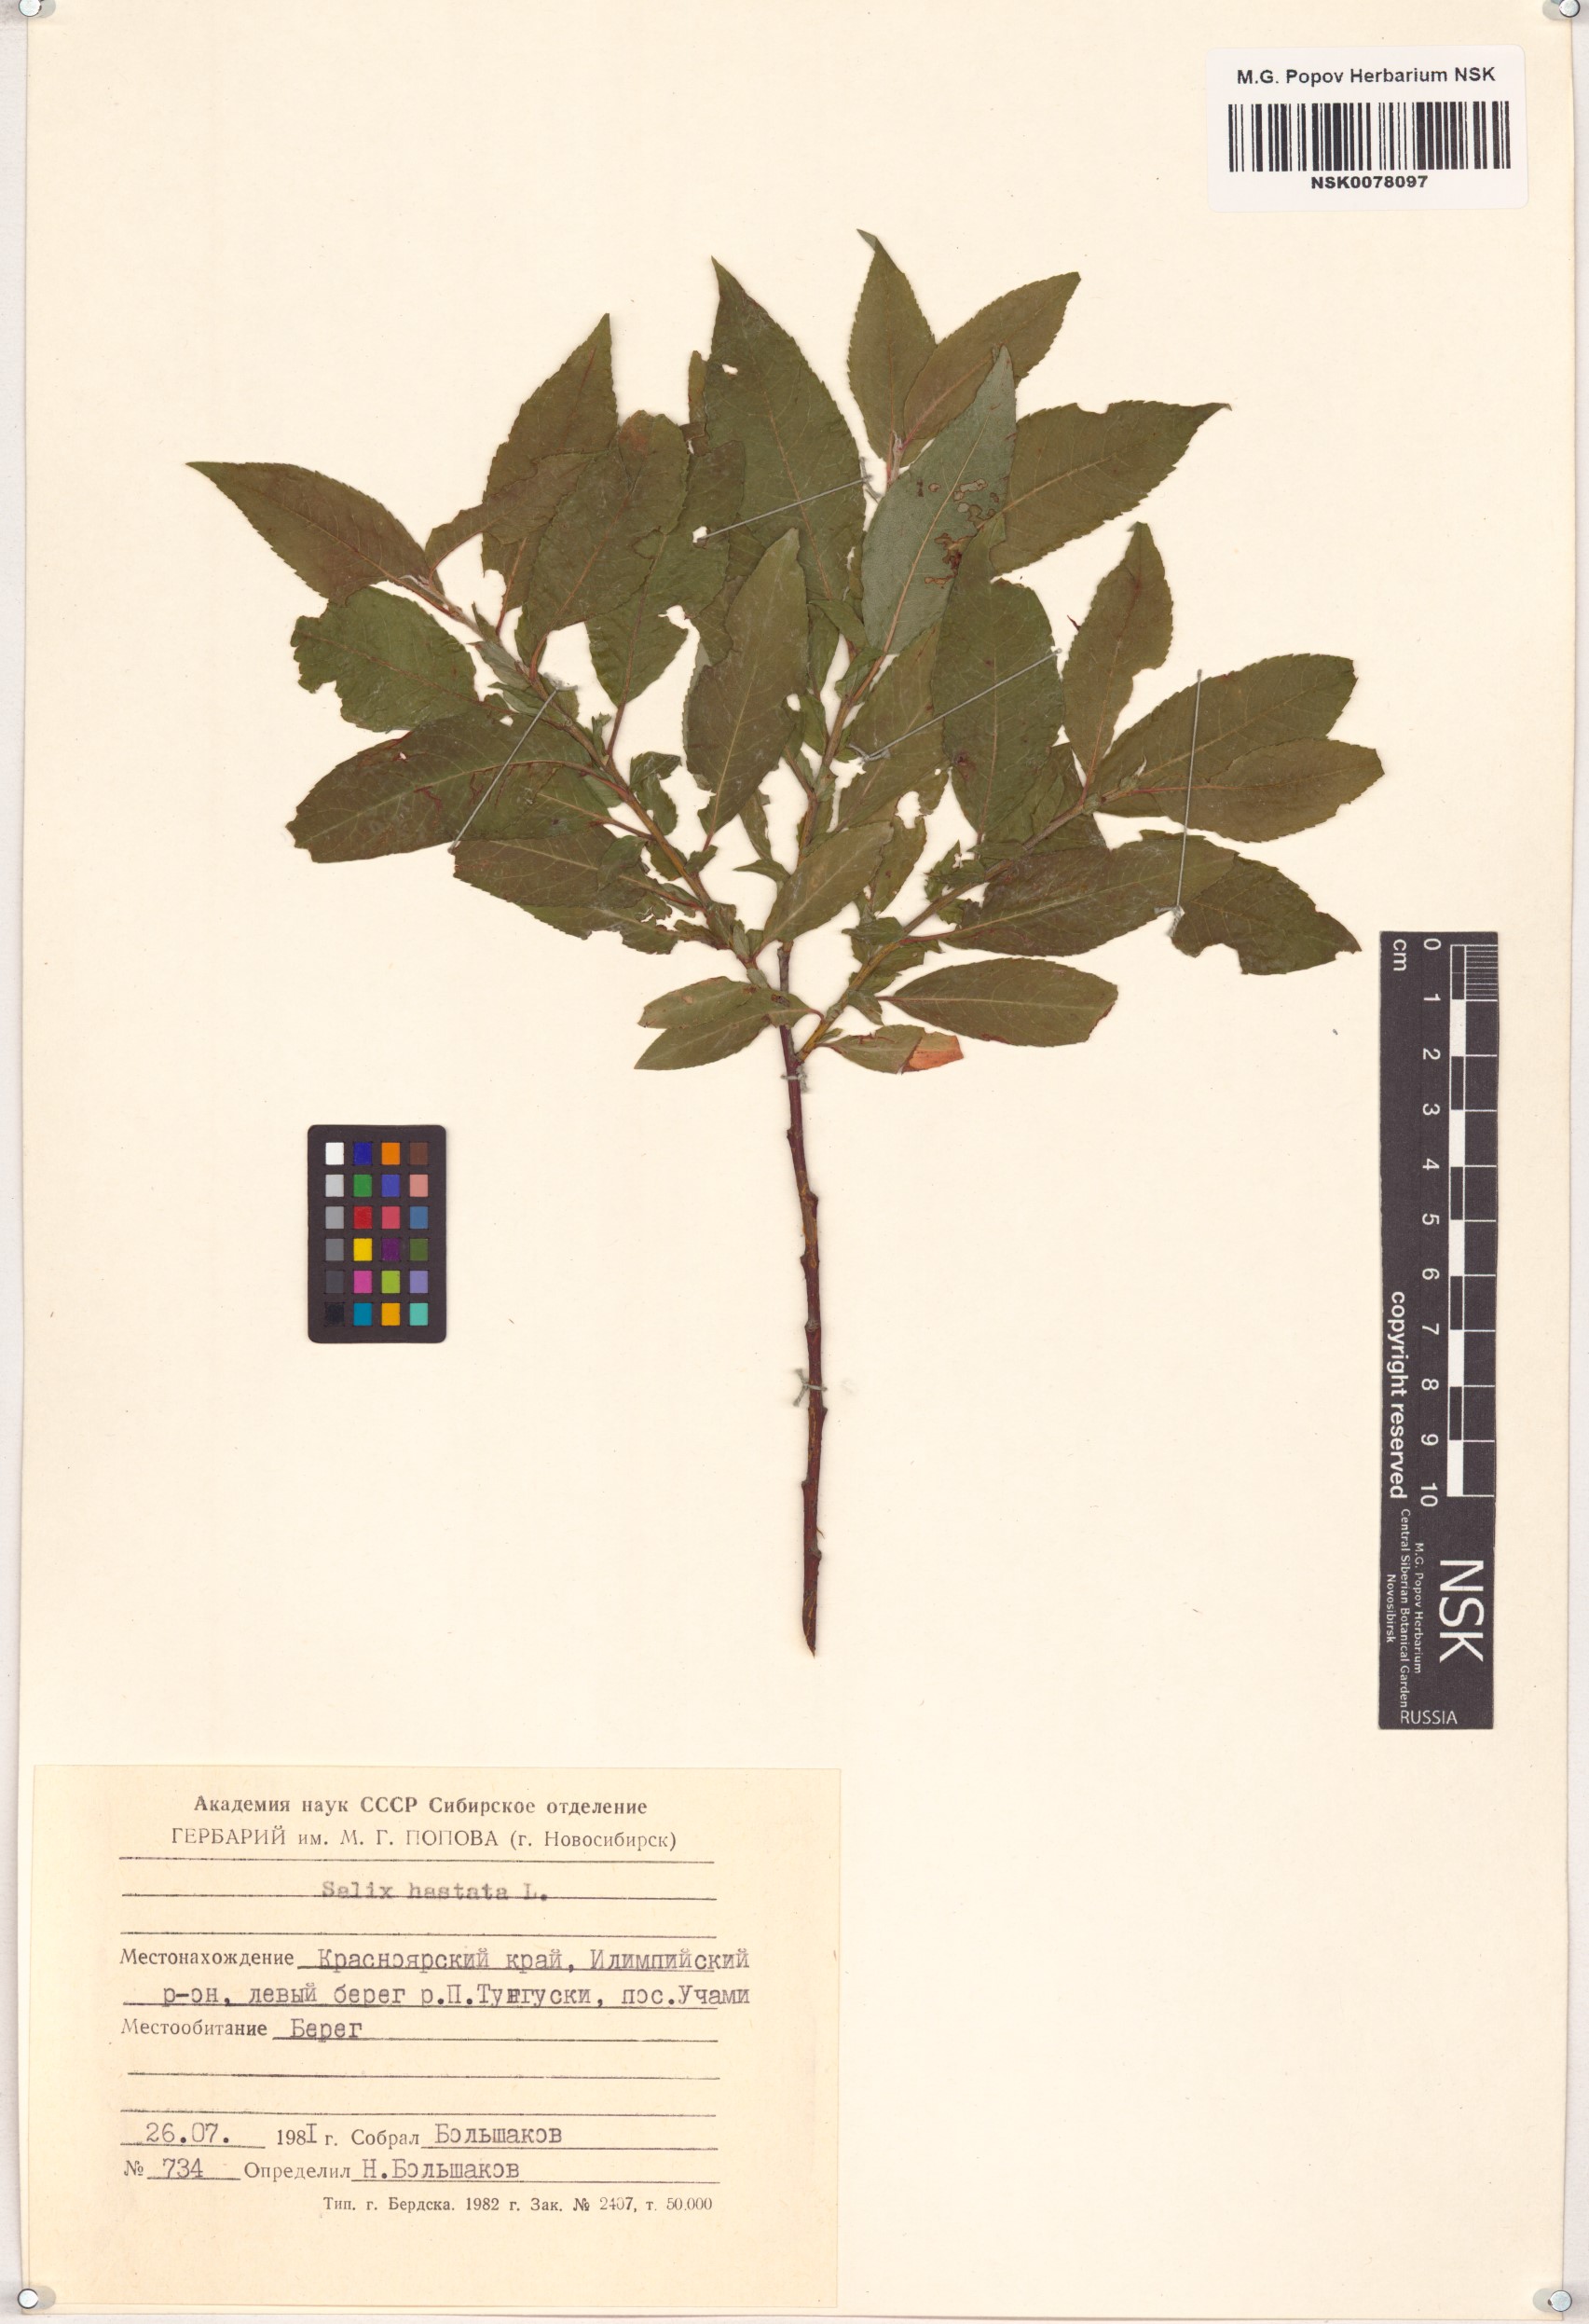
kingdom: Plantae
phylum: Tracheophyta
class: Magnoliopsida
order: Malpighiales
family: Salicaceae
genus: Salix
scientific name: Salix hastata
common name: Halberd willow
